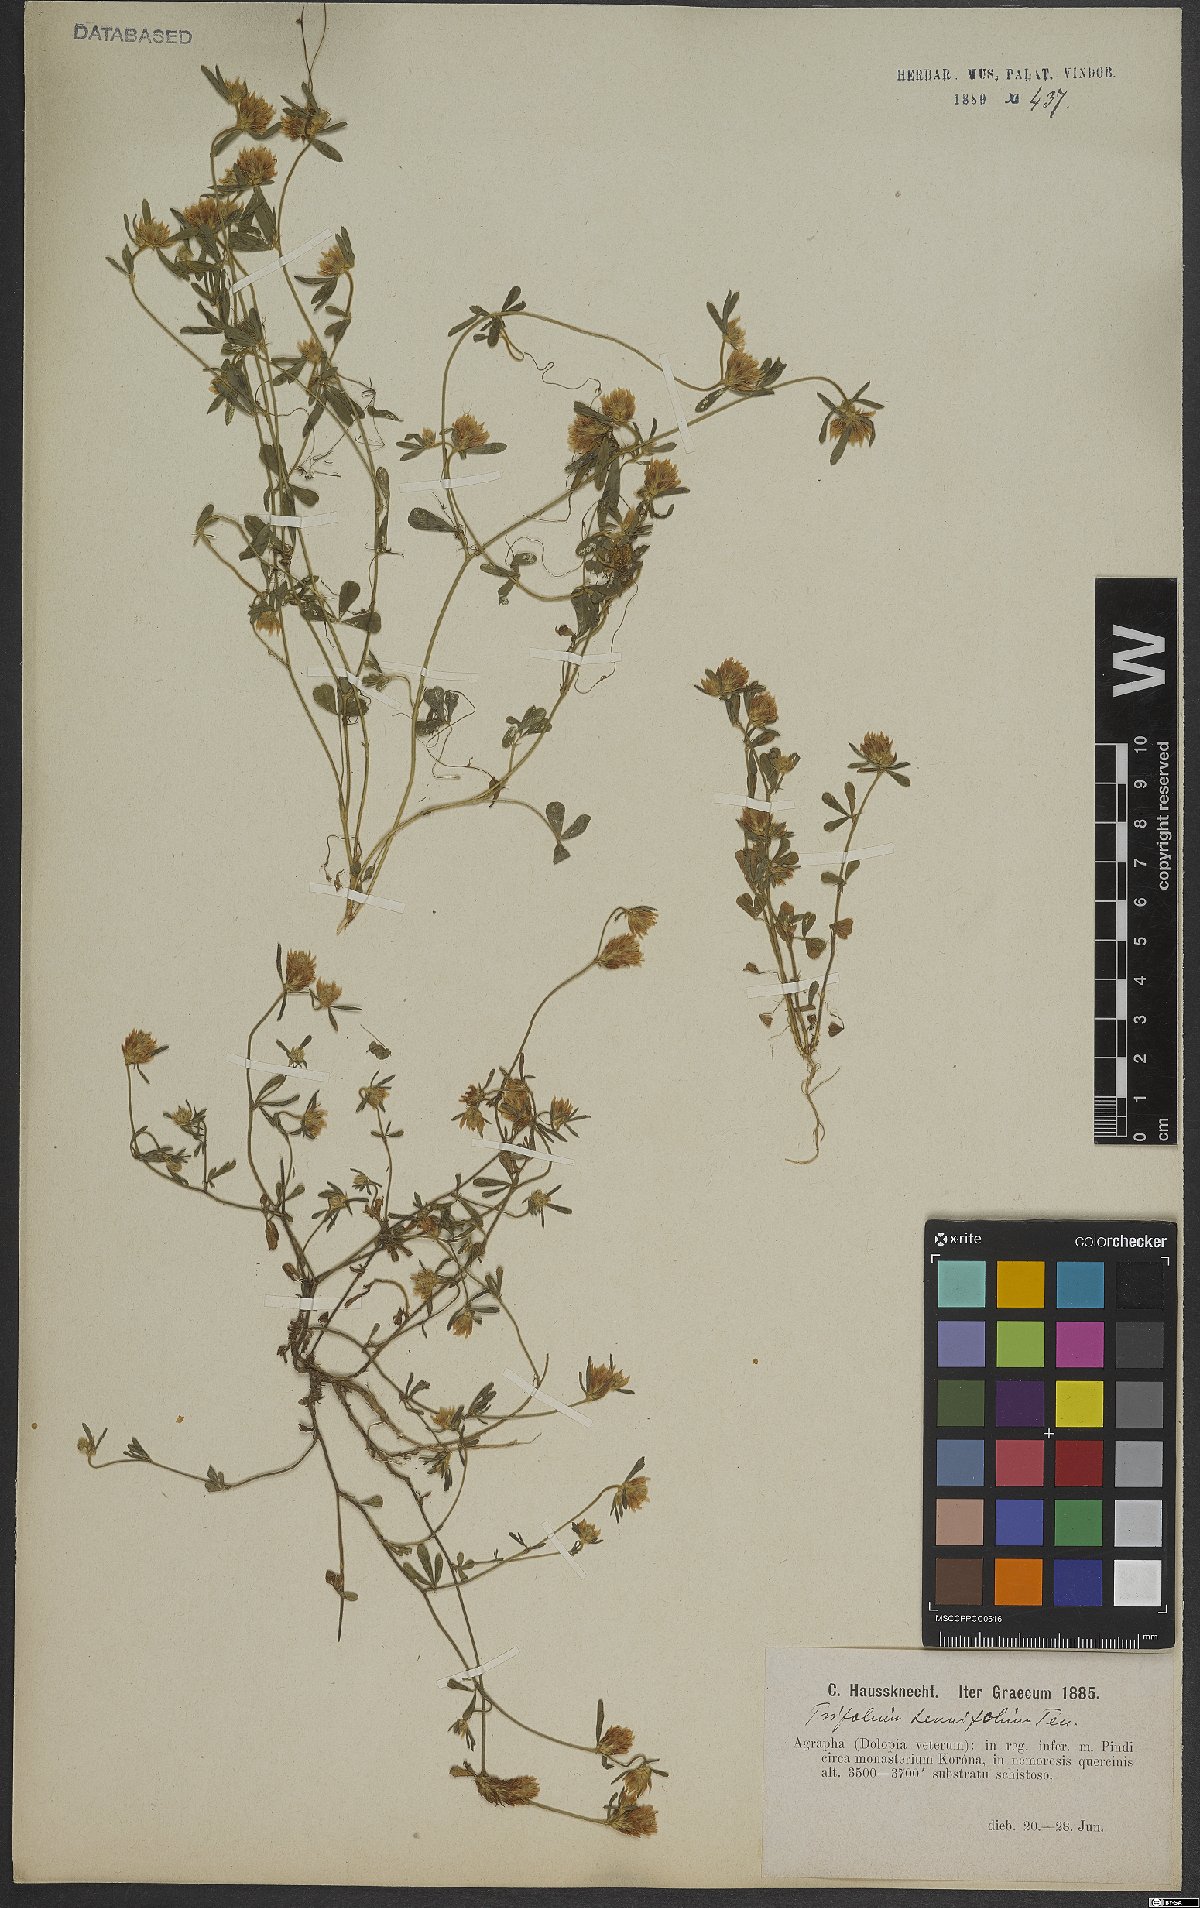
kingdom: Plantae
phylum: Tracheophyta
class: Magnoliopsida
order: Fabales
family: Fabaceae
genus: Trifolium
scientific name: Trifolium tenuifolium
